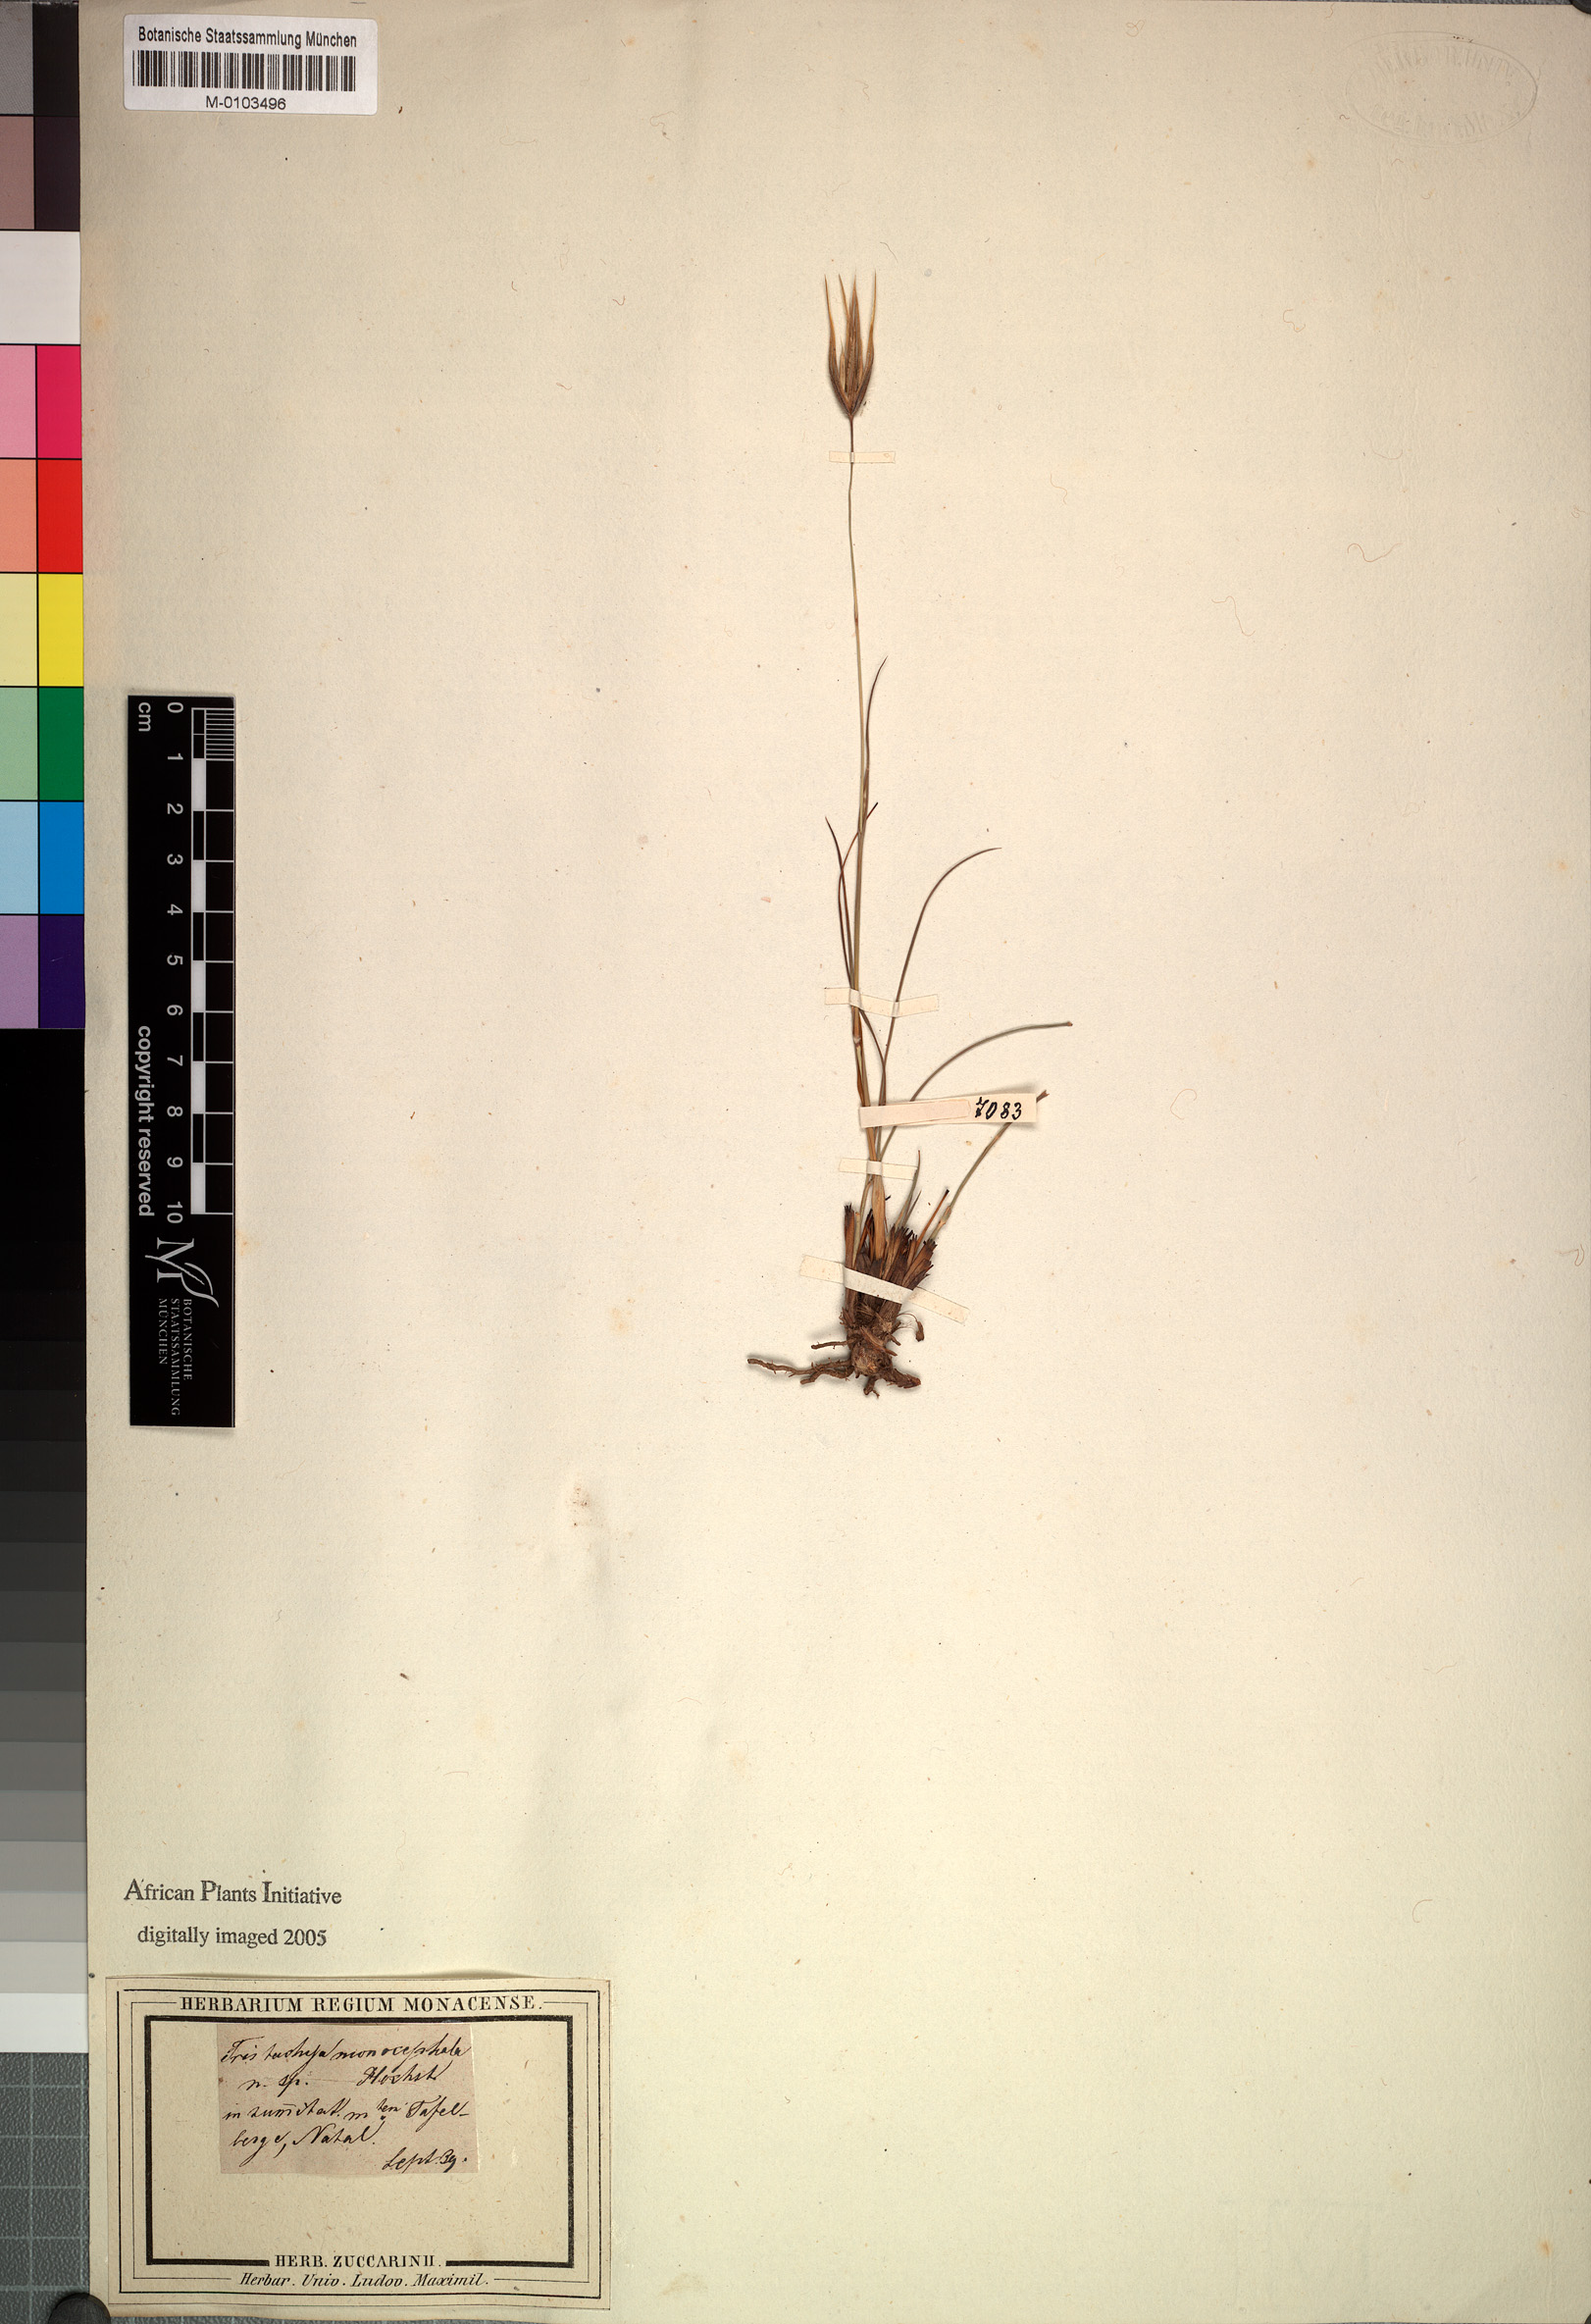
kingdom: Plantae
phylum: Tracheophyta
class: Liliopsida
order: Poales
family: Poaceae
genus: Tristachya
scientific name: Tristachya leucothrix
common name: Trident grass
